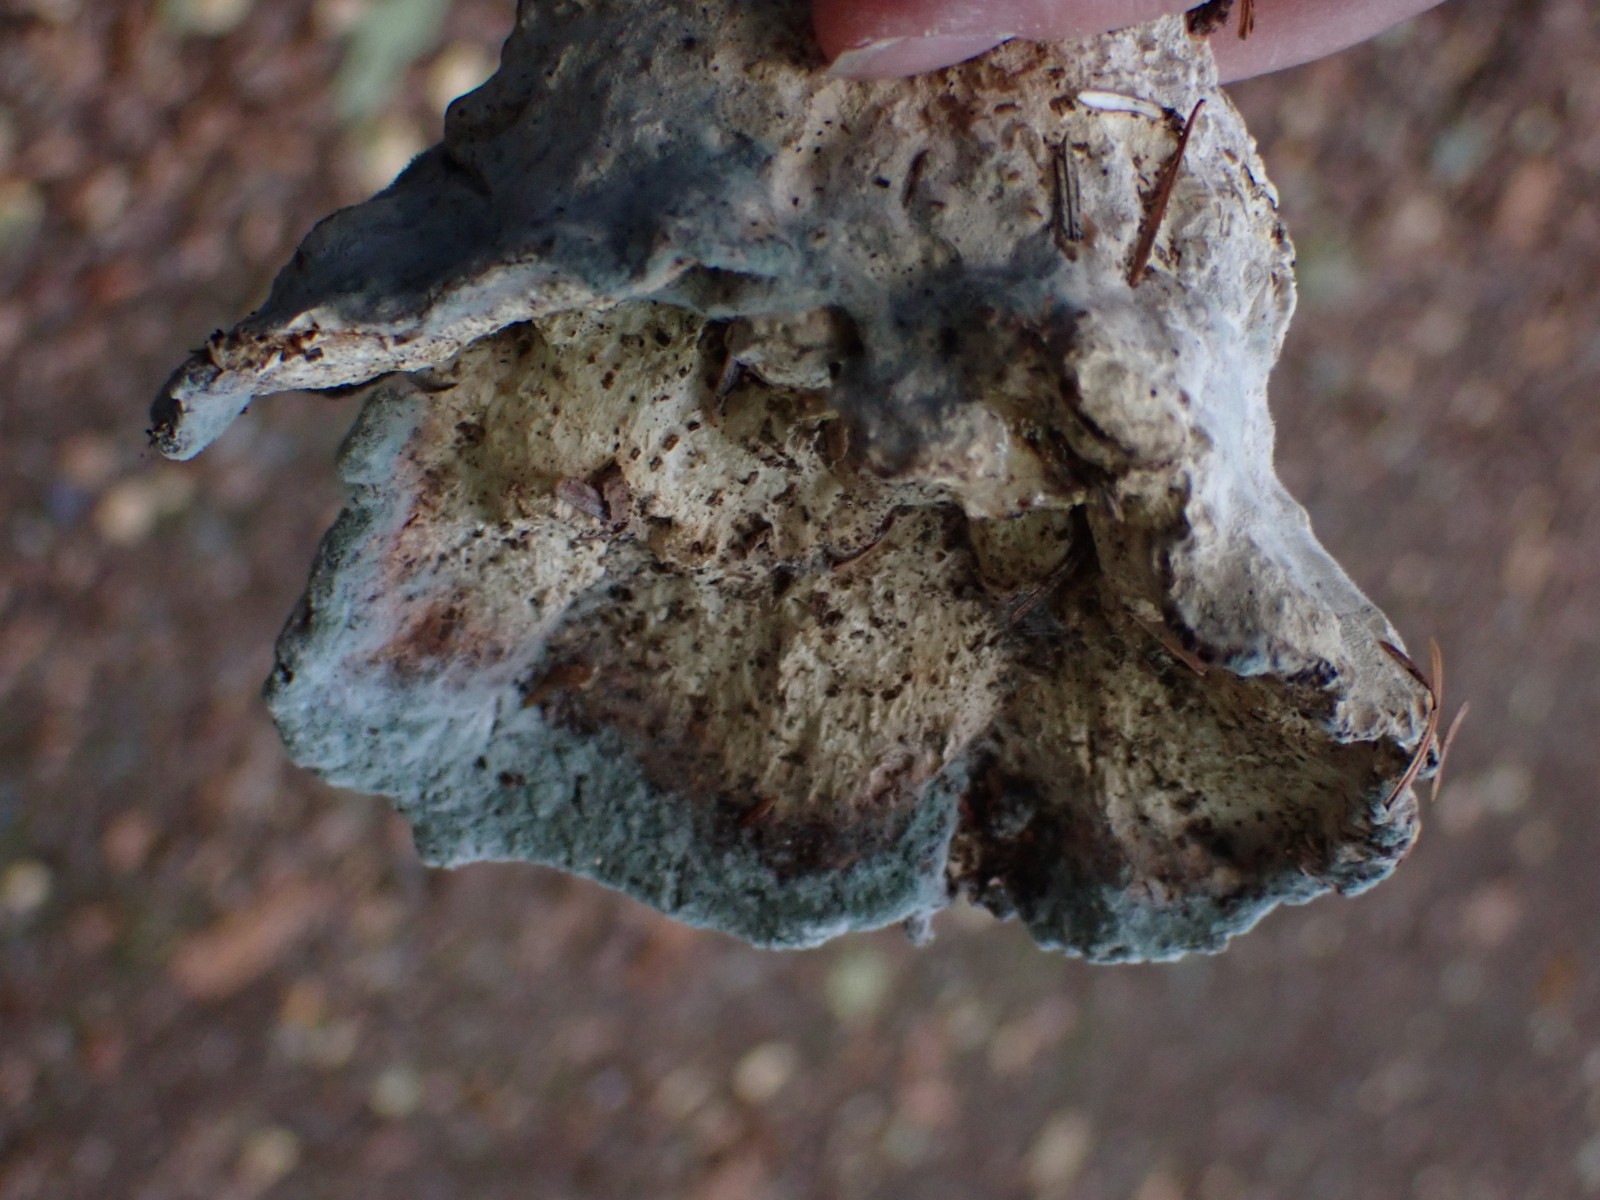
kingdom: Fungi
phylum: Basidiomycota
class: Agaricomycetes
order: Polyporales
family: Polyporaceae
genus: Cyanosporus
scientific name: Cyanosporus caesius
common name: blålig kødporesvamp
